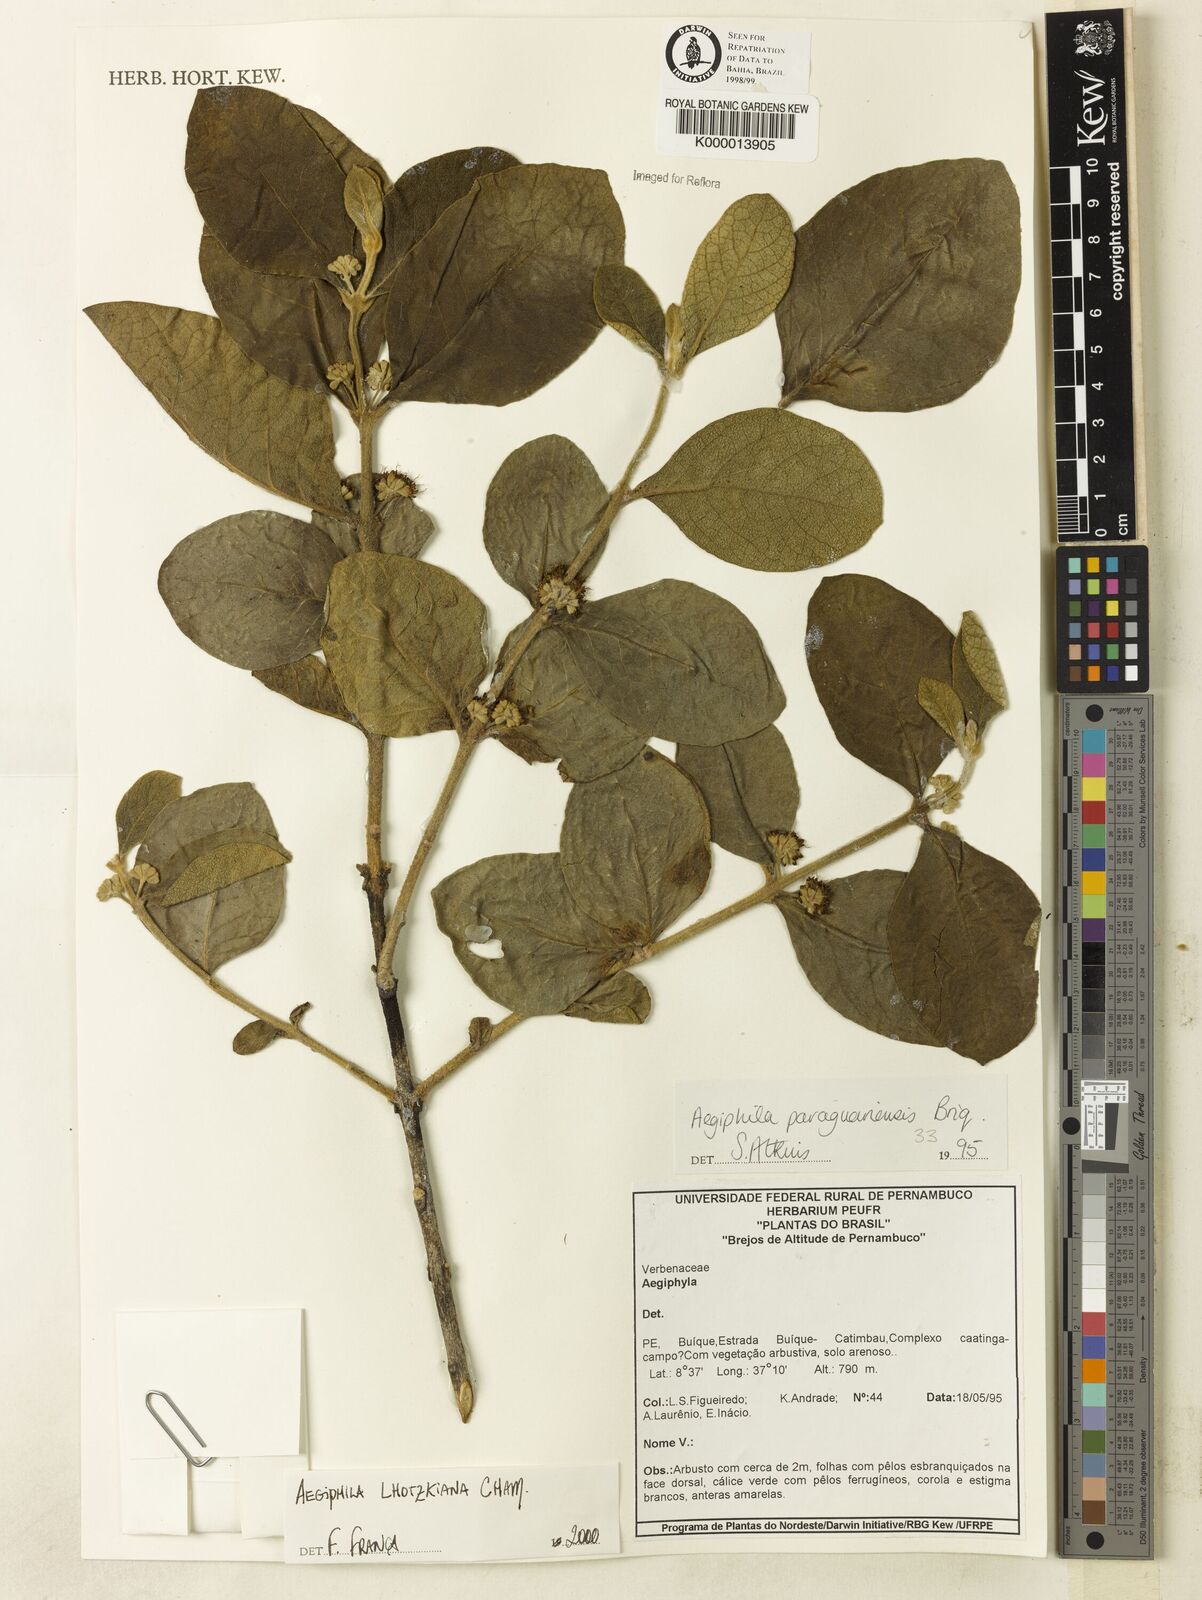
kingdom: Plantae
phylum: Tracheophyta
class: Magnoliopsida
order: Lamiales
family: Lamiaceae
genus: Aegiphila
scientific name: Aegiphila paraguariensis
